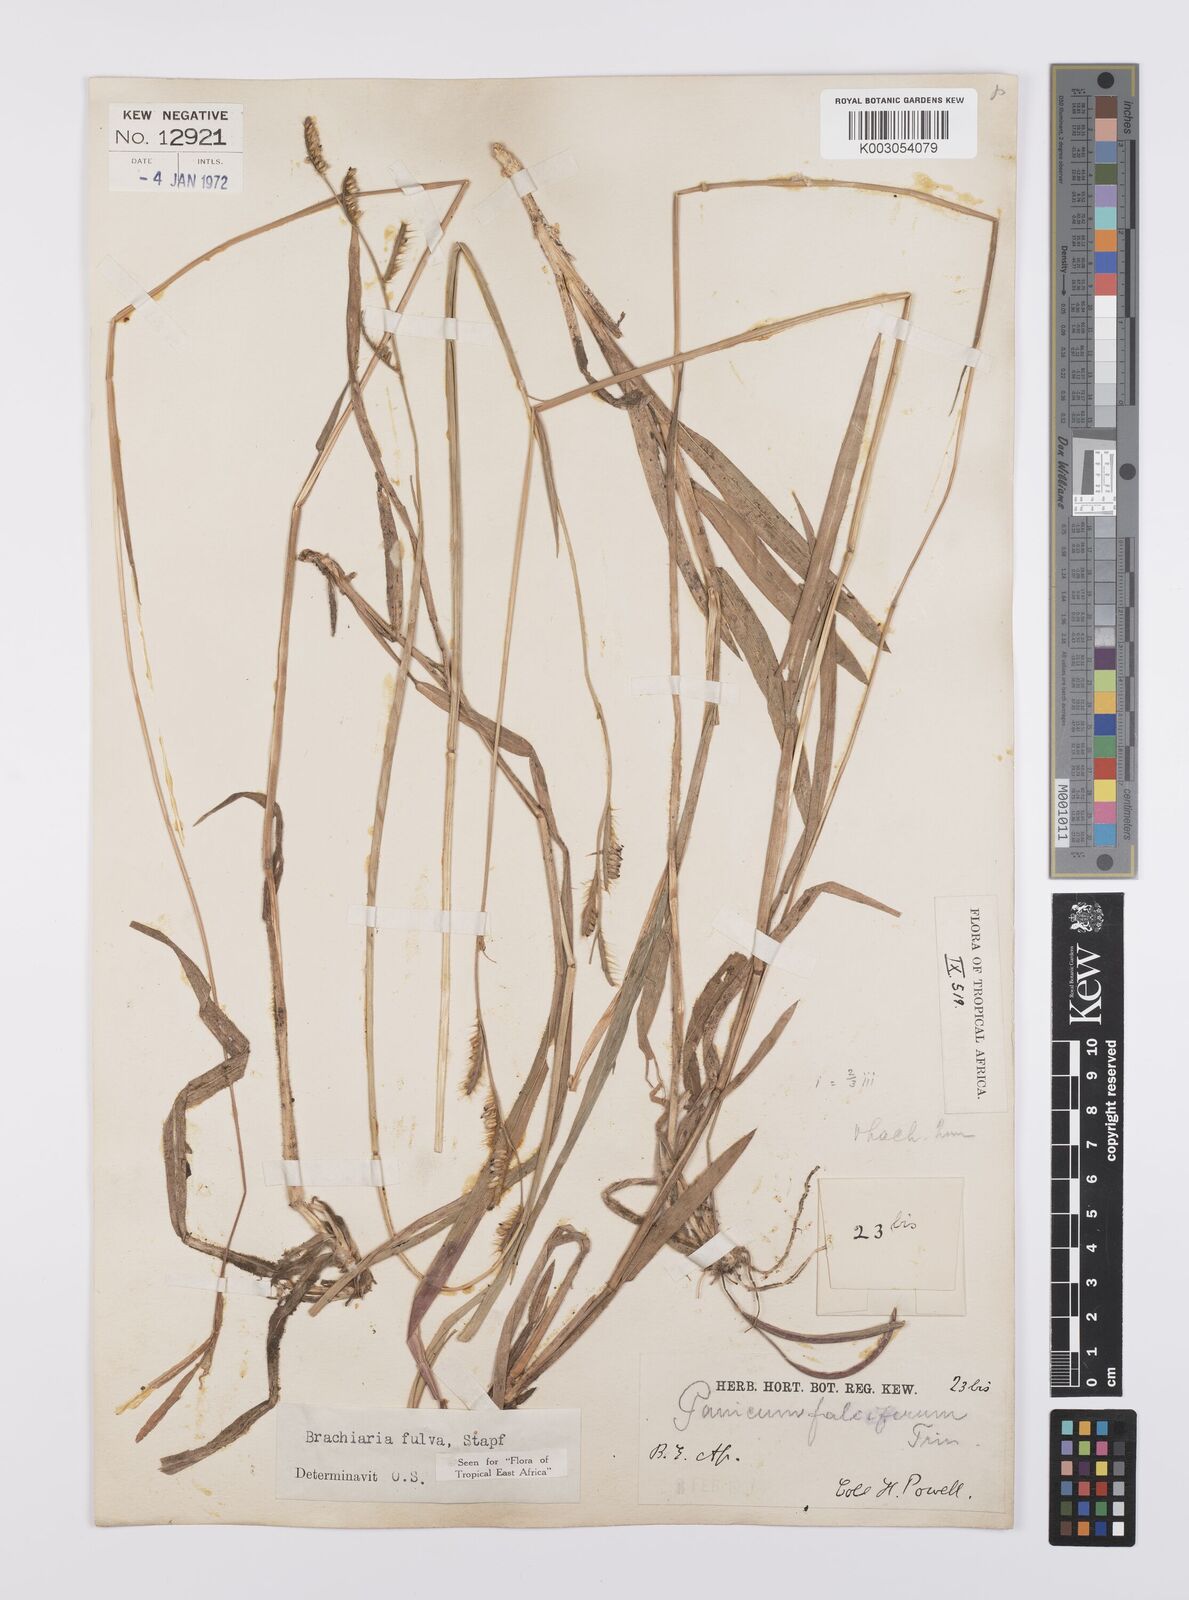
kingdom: Plantae
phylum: Tracheophyta
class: Liliopsida
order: Poales
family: Poaceae
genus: Urochloa
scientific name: Urochloa jubata
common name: Buffalograss
